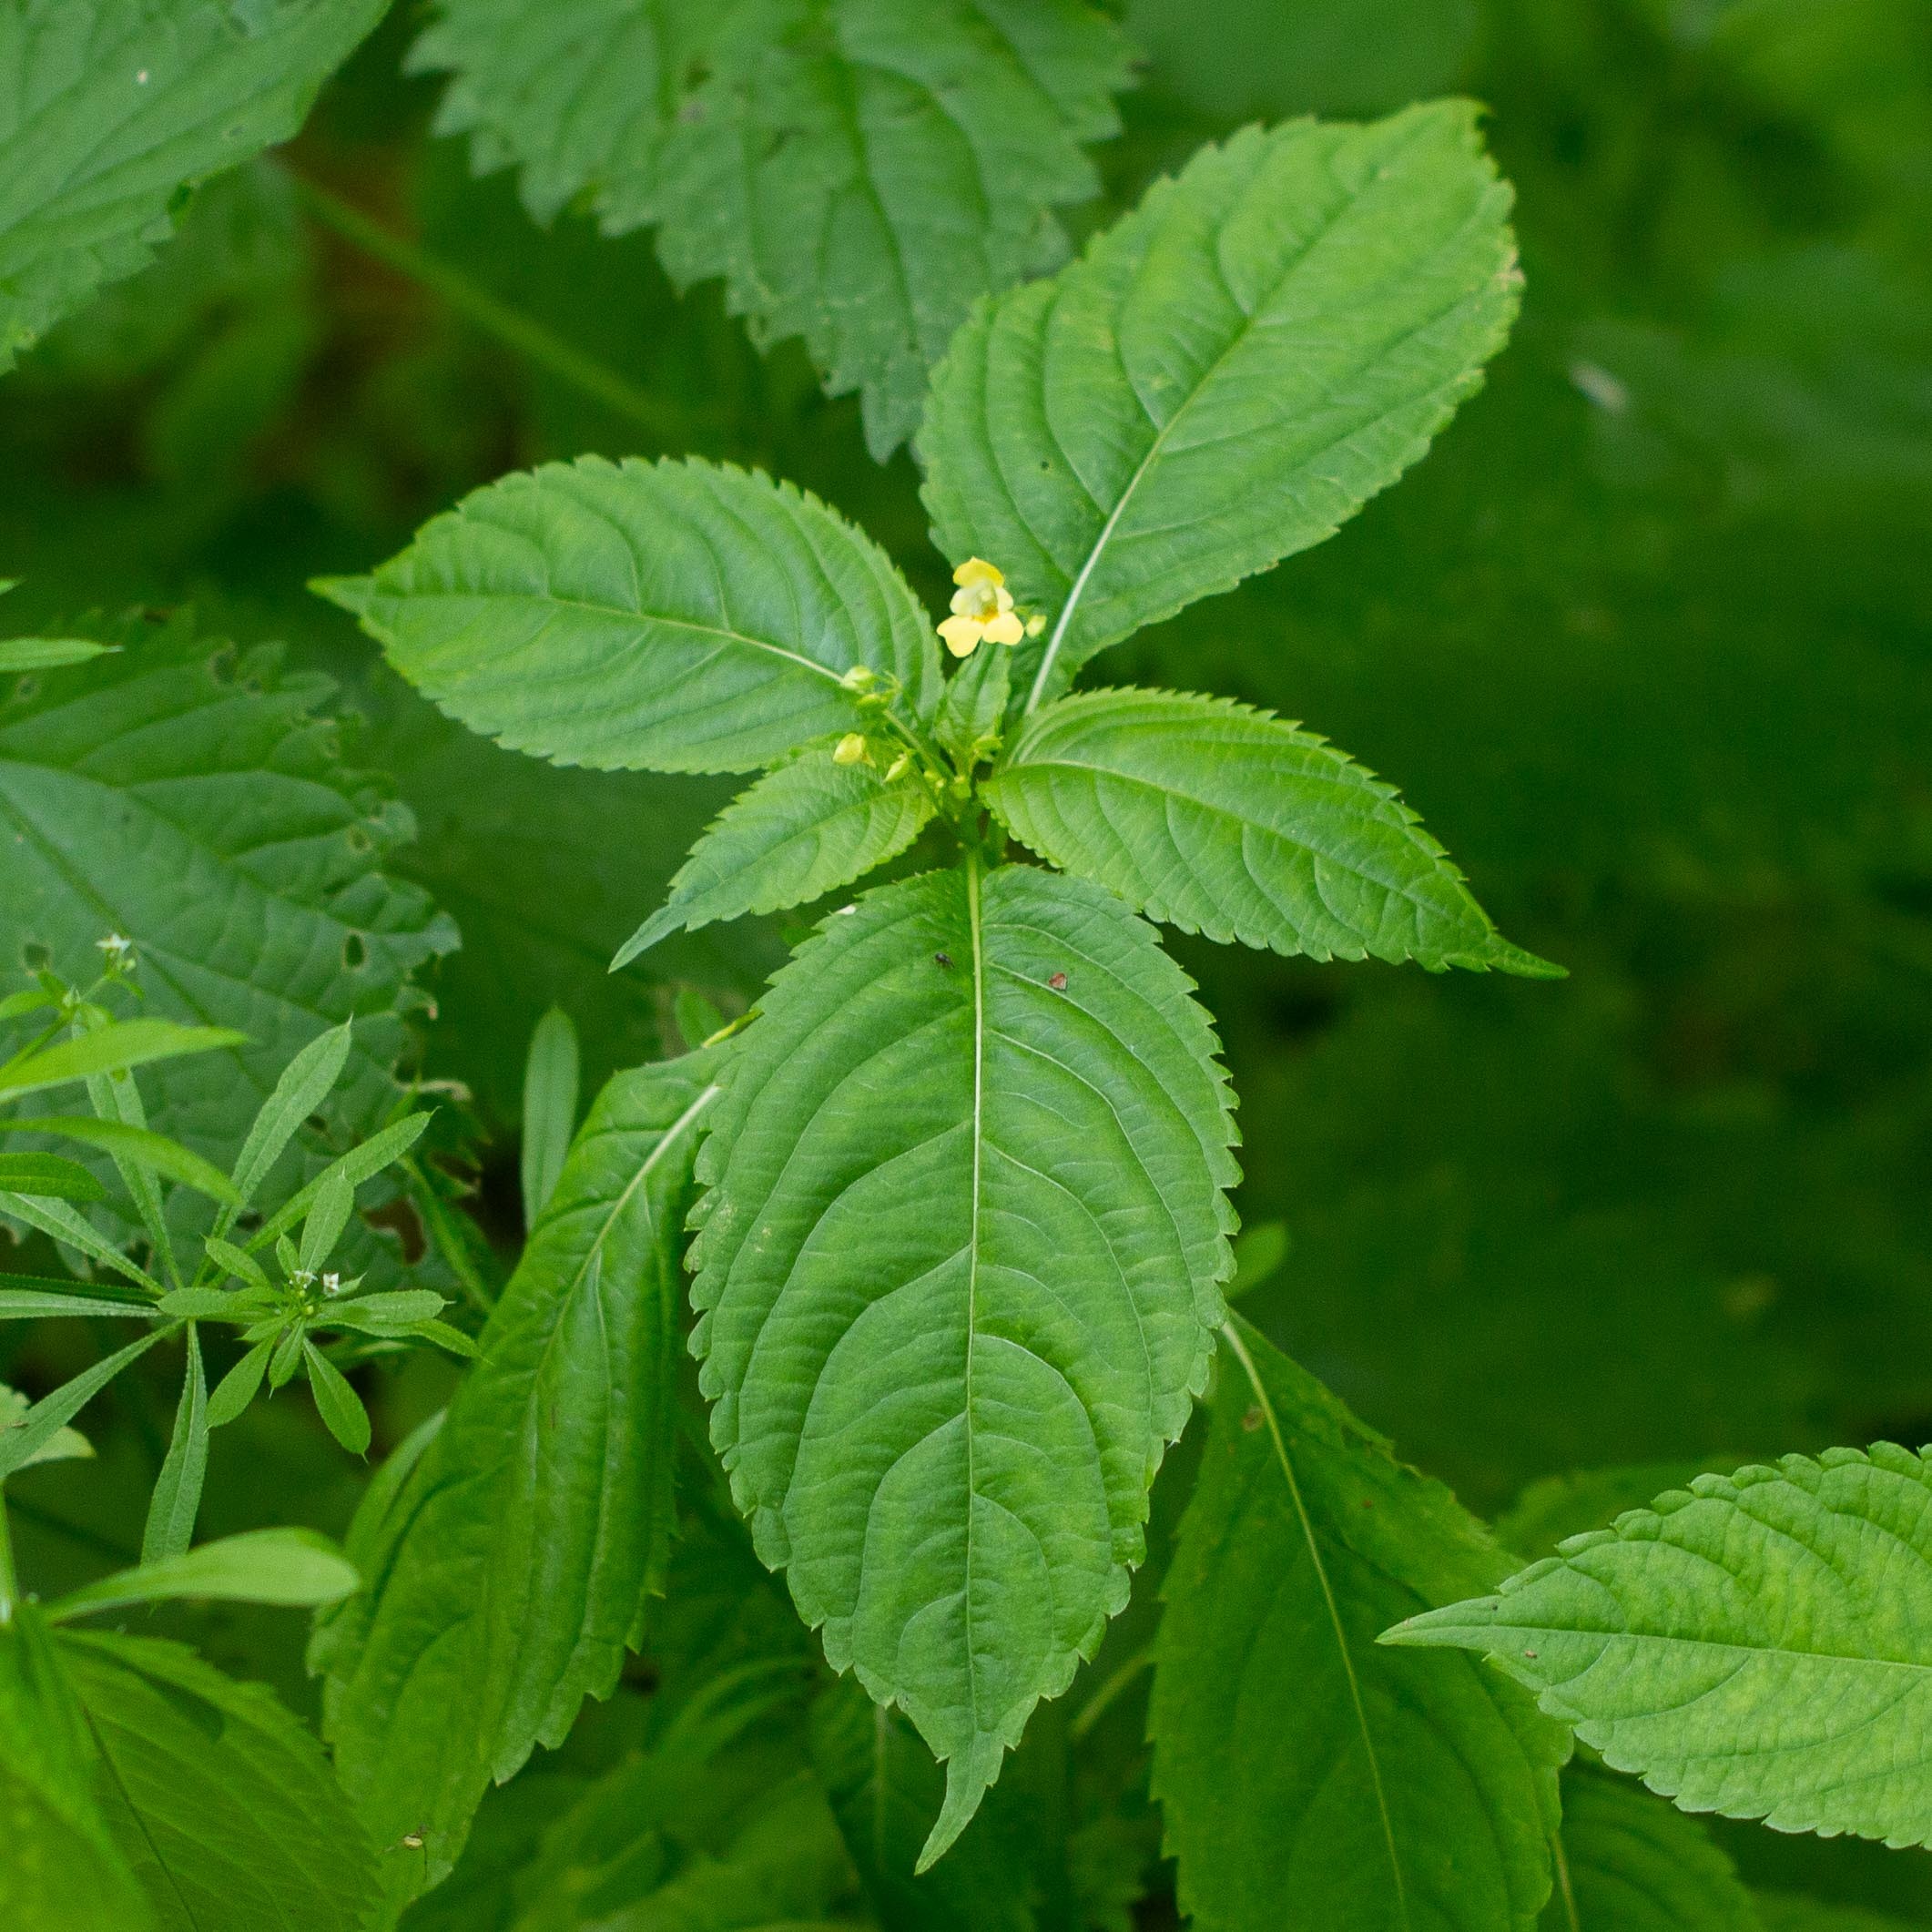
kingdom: Plantae
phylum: Tracheophyta
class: Magnoliopsida
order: Ericales
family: Balsaminaceae
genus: Impatiens
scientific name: Impatiens parviflora
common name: Småblomstret balsamin
